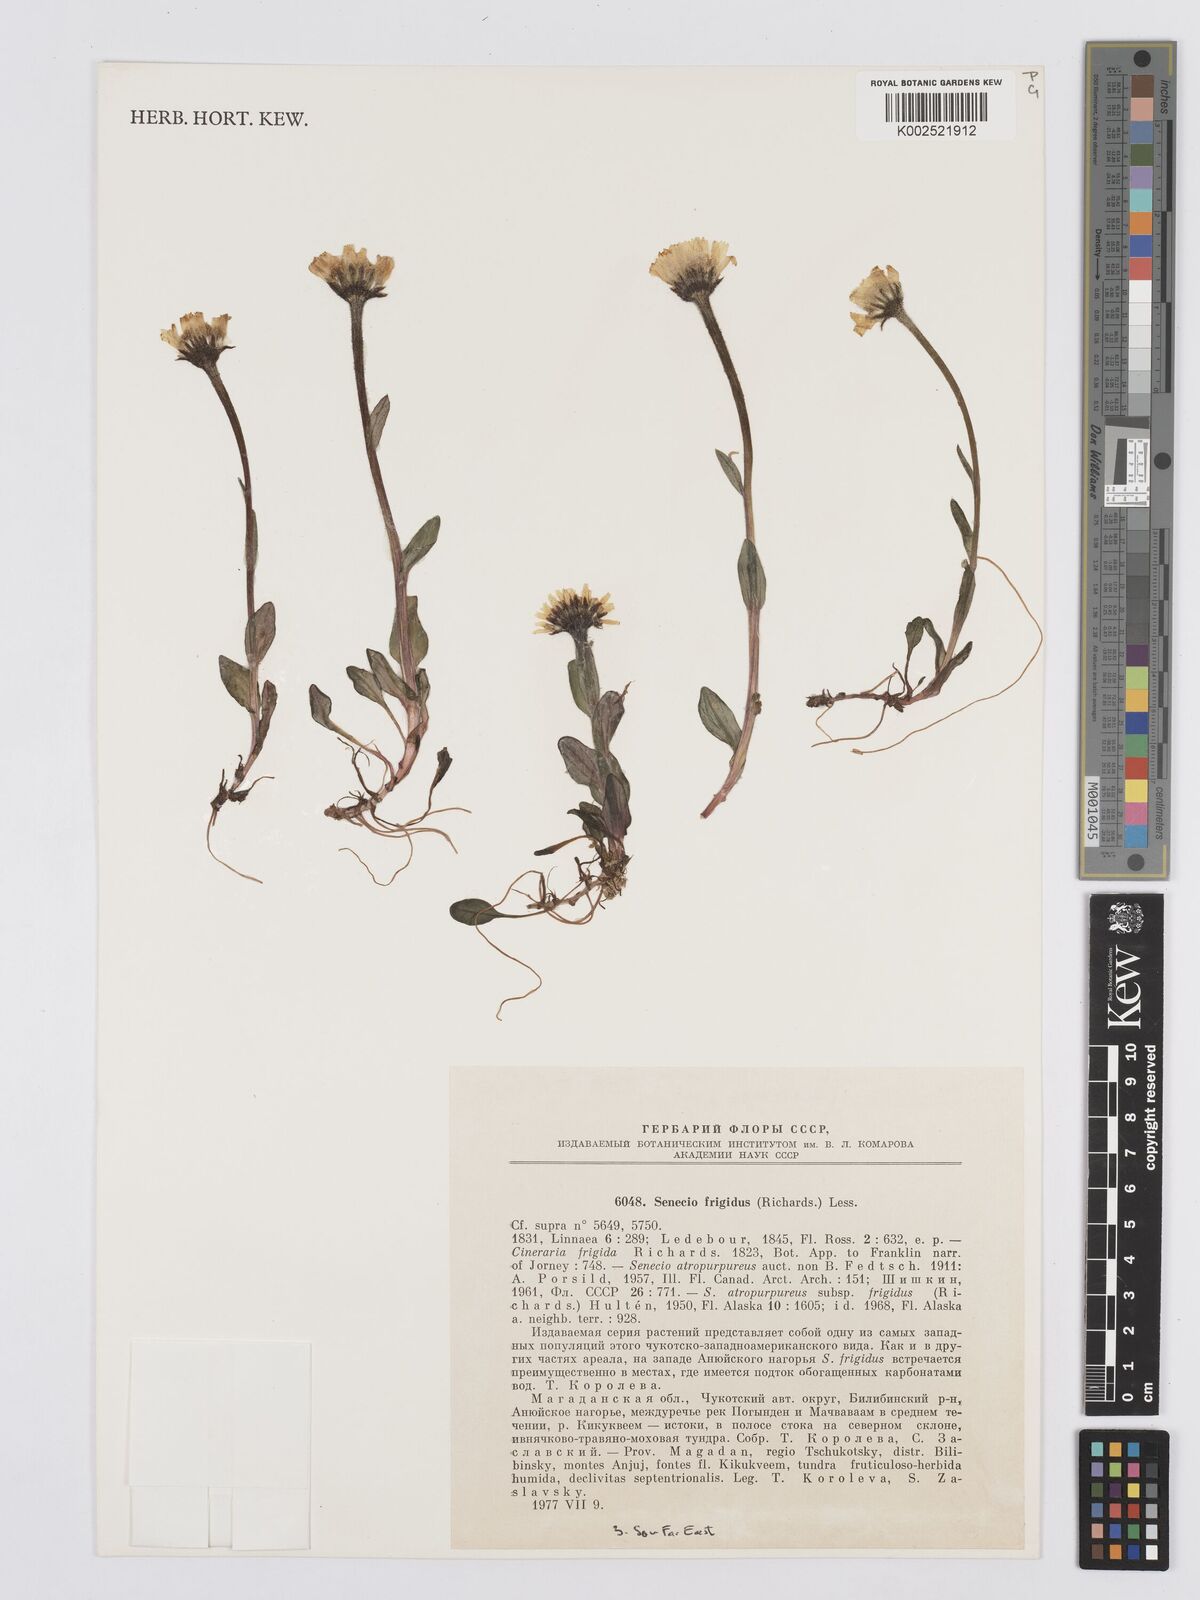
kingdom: Plantae
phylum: Tracheophyta
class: Magnoliopsida
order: Asterales
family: Asteraceae
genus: Tephroseris
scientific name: Tephroseris
